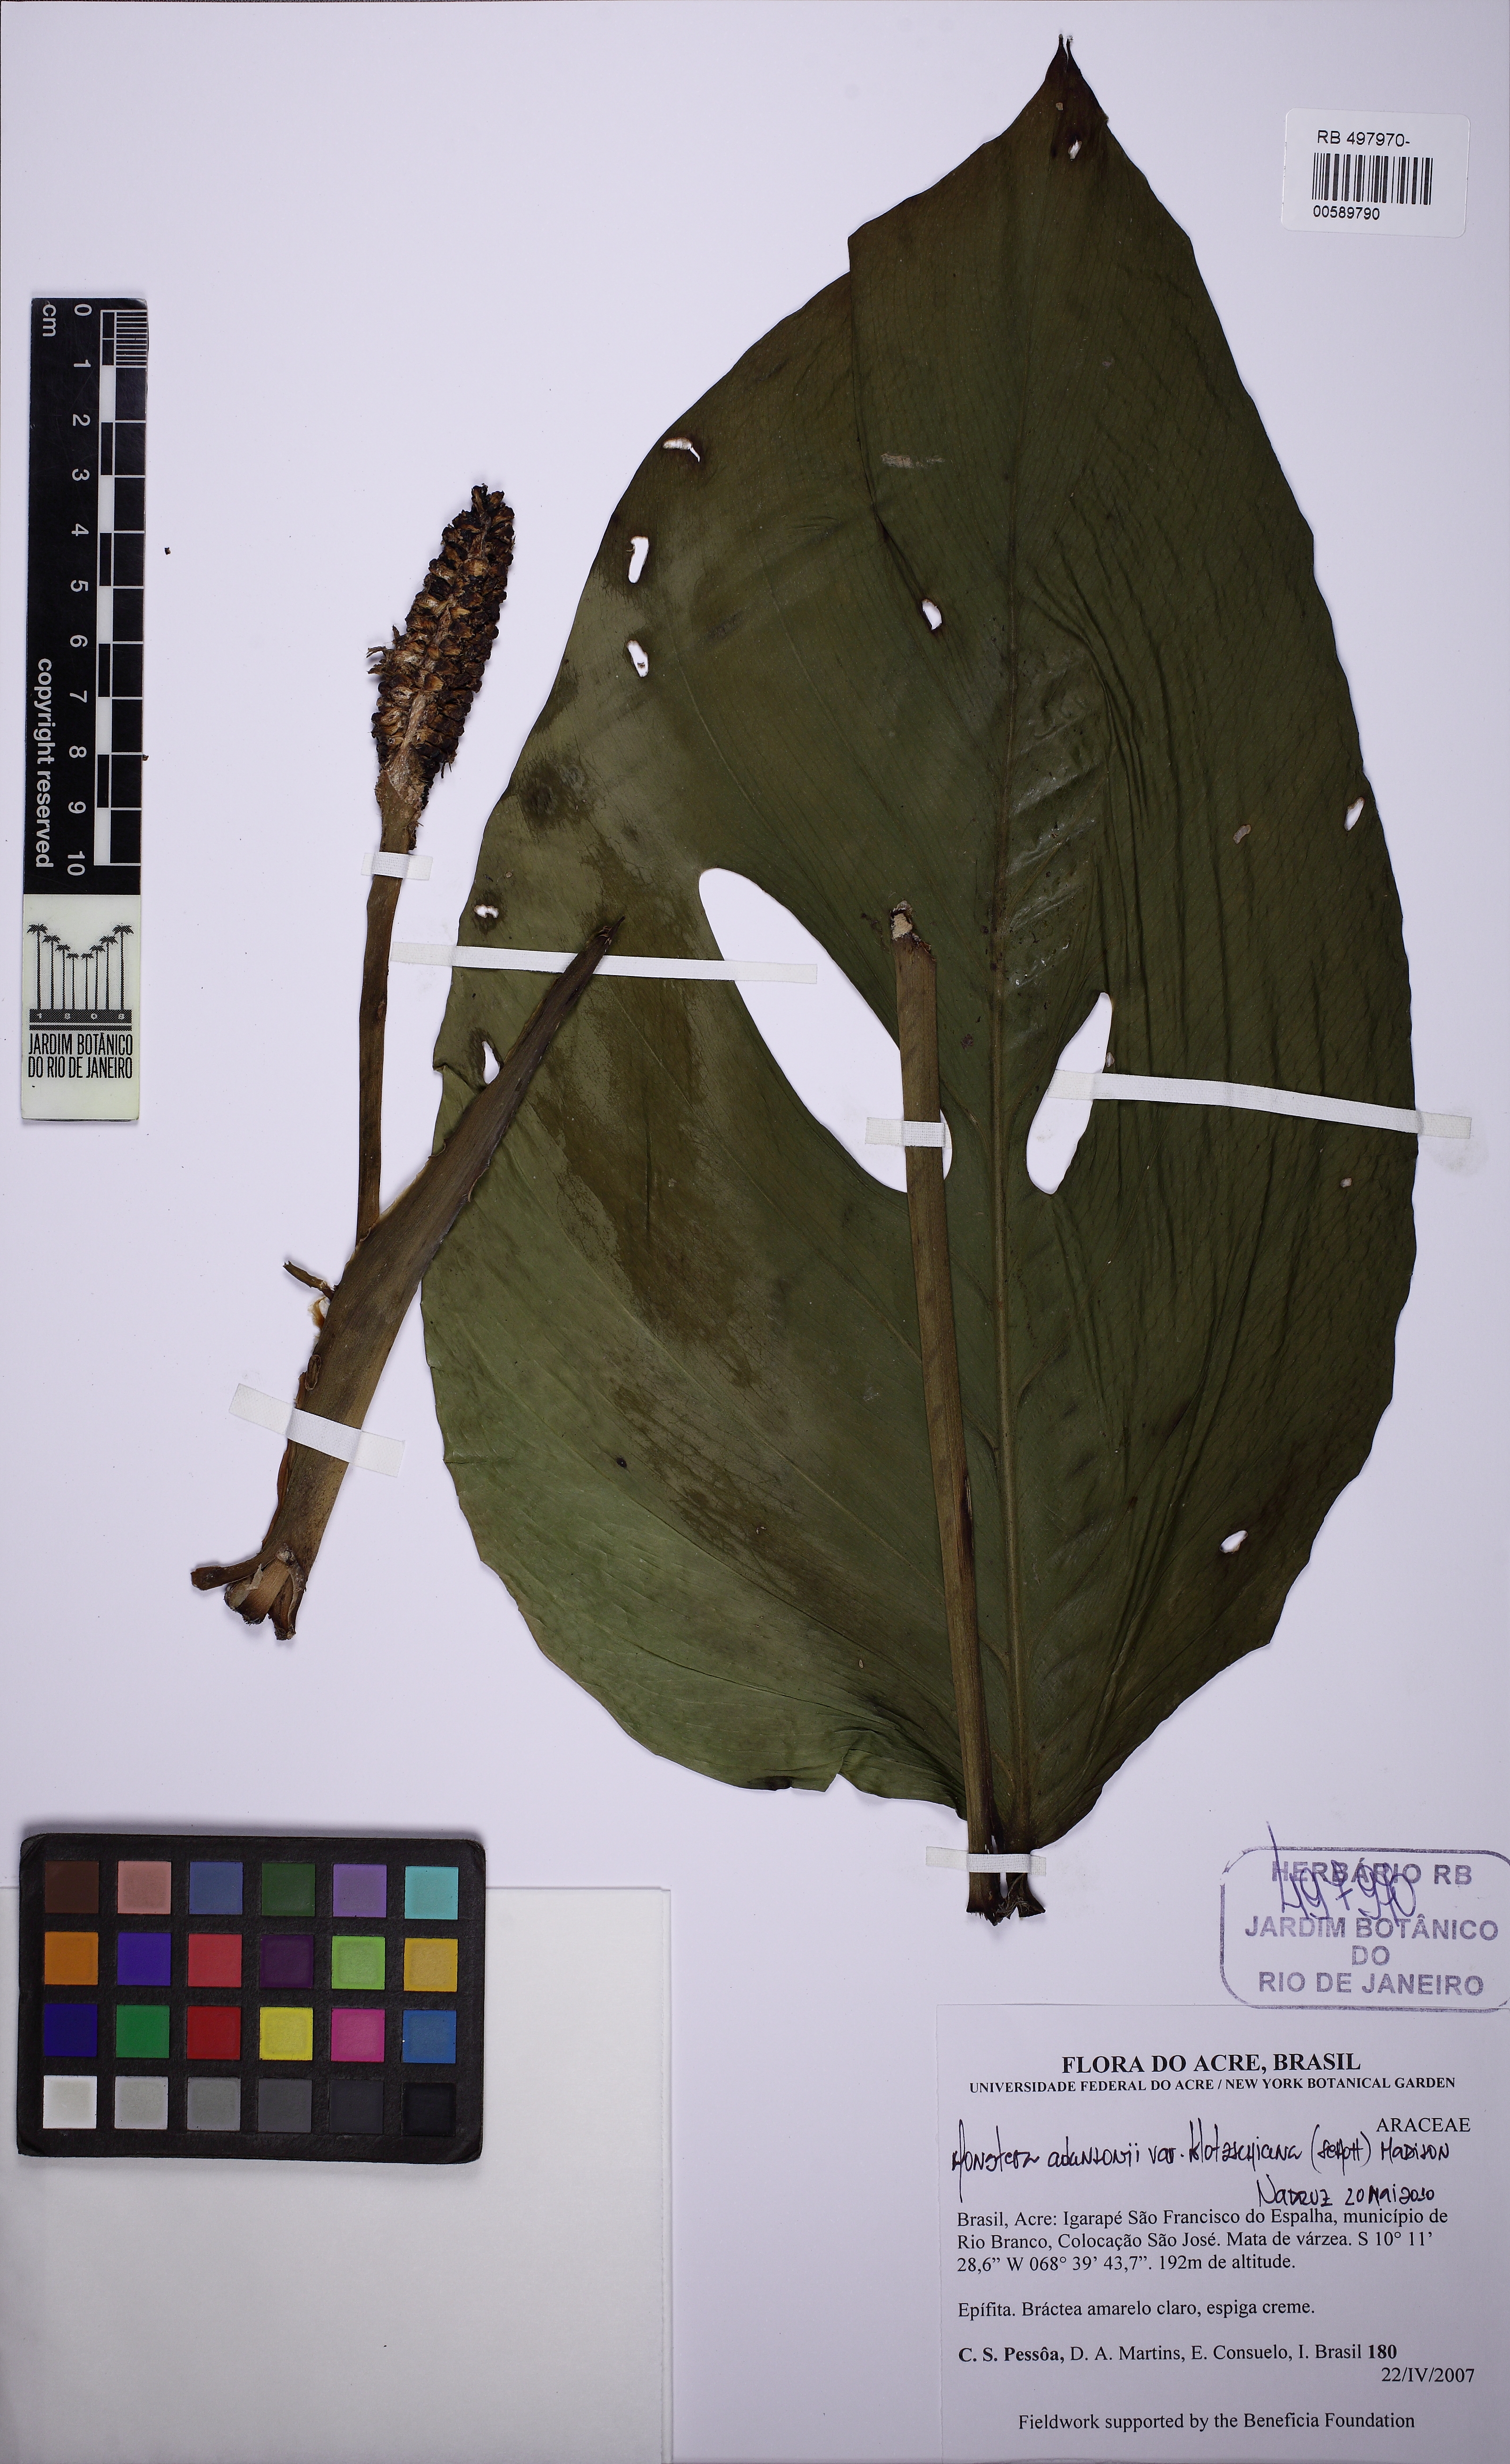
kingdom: Plantae
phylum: Tracheophyta
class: Liliopsida
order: Alismatales
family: Araceae
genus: Monstera
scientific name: Monstera adansonii
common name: Tarovine
